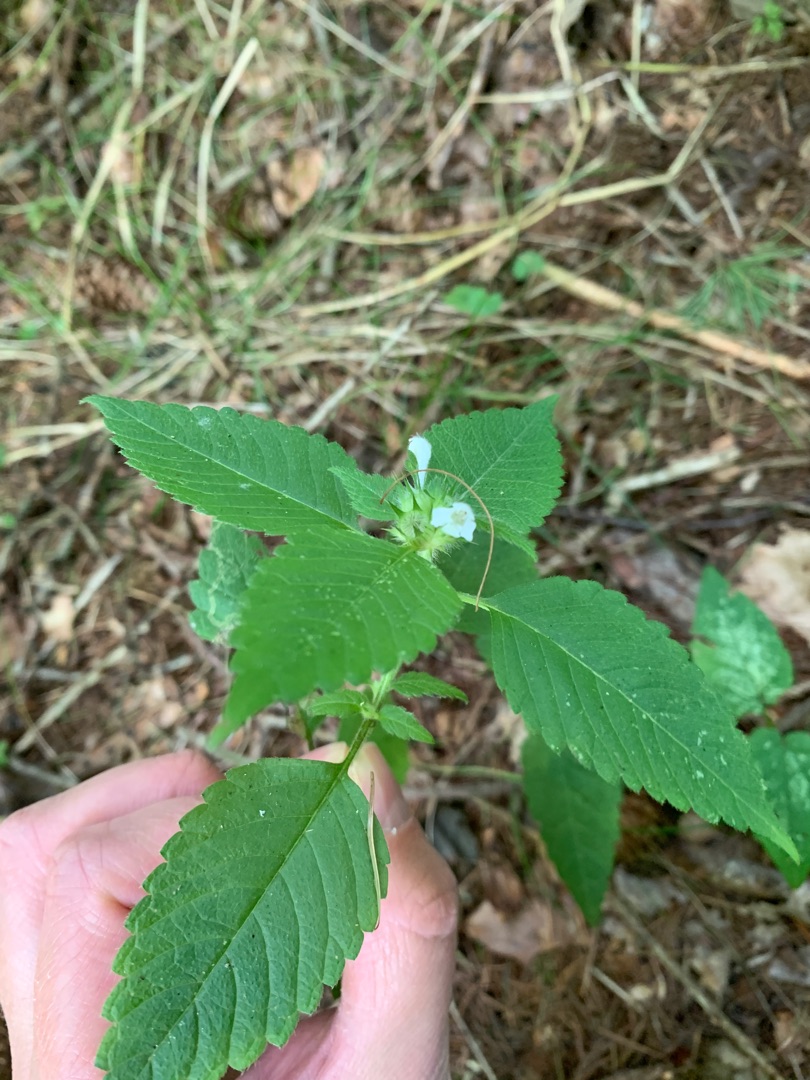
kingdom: Plantae
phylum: Tracheophyta
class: Magnoliopsida
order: Lamiales
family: Lamiaceae
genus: Galeopsis
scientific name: Galeopsis tetrahit
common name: Almindelig hanekro
